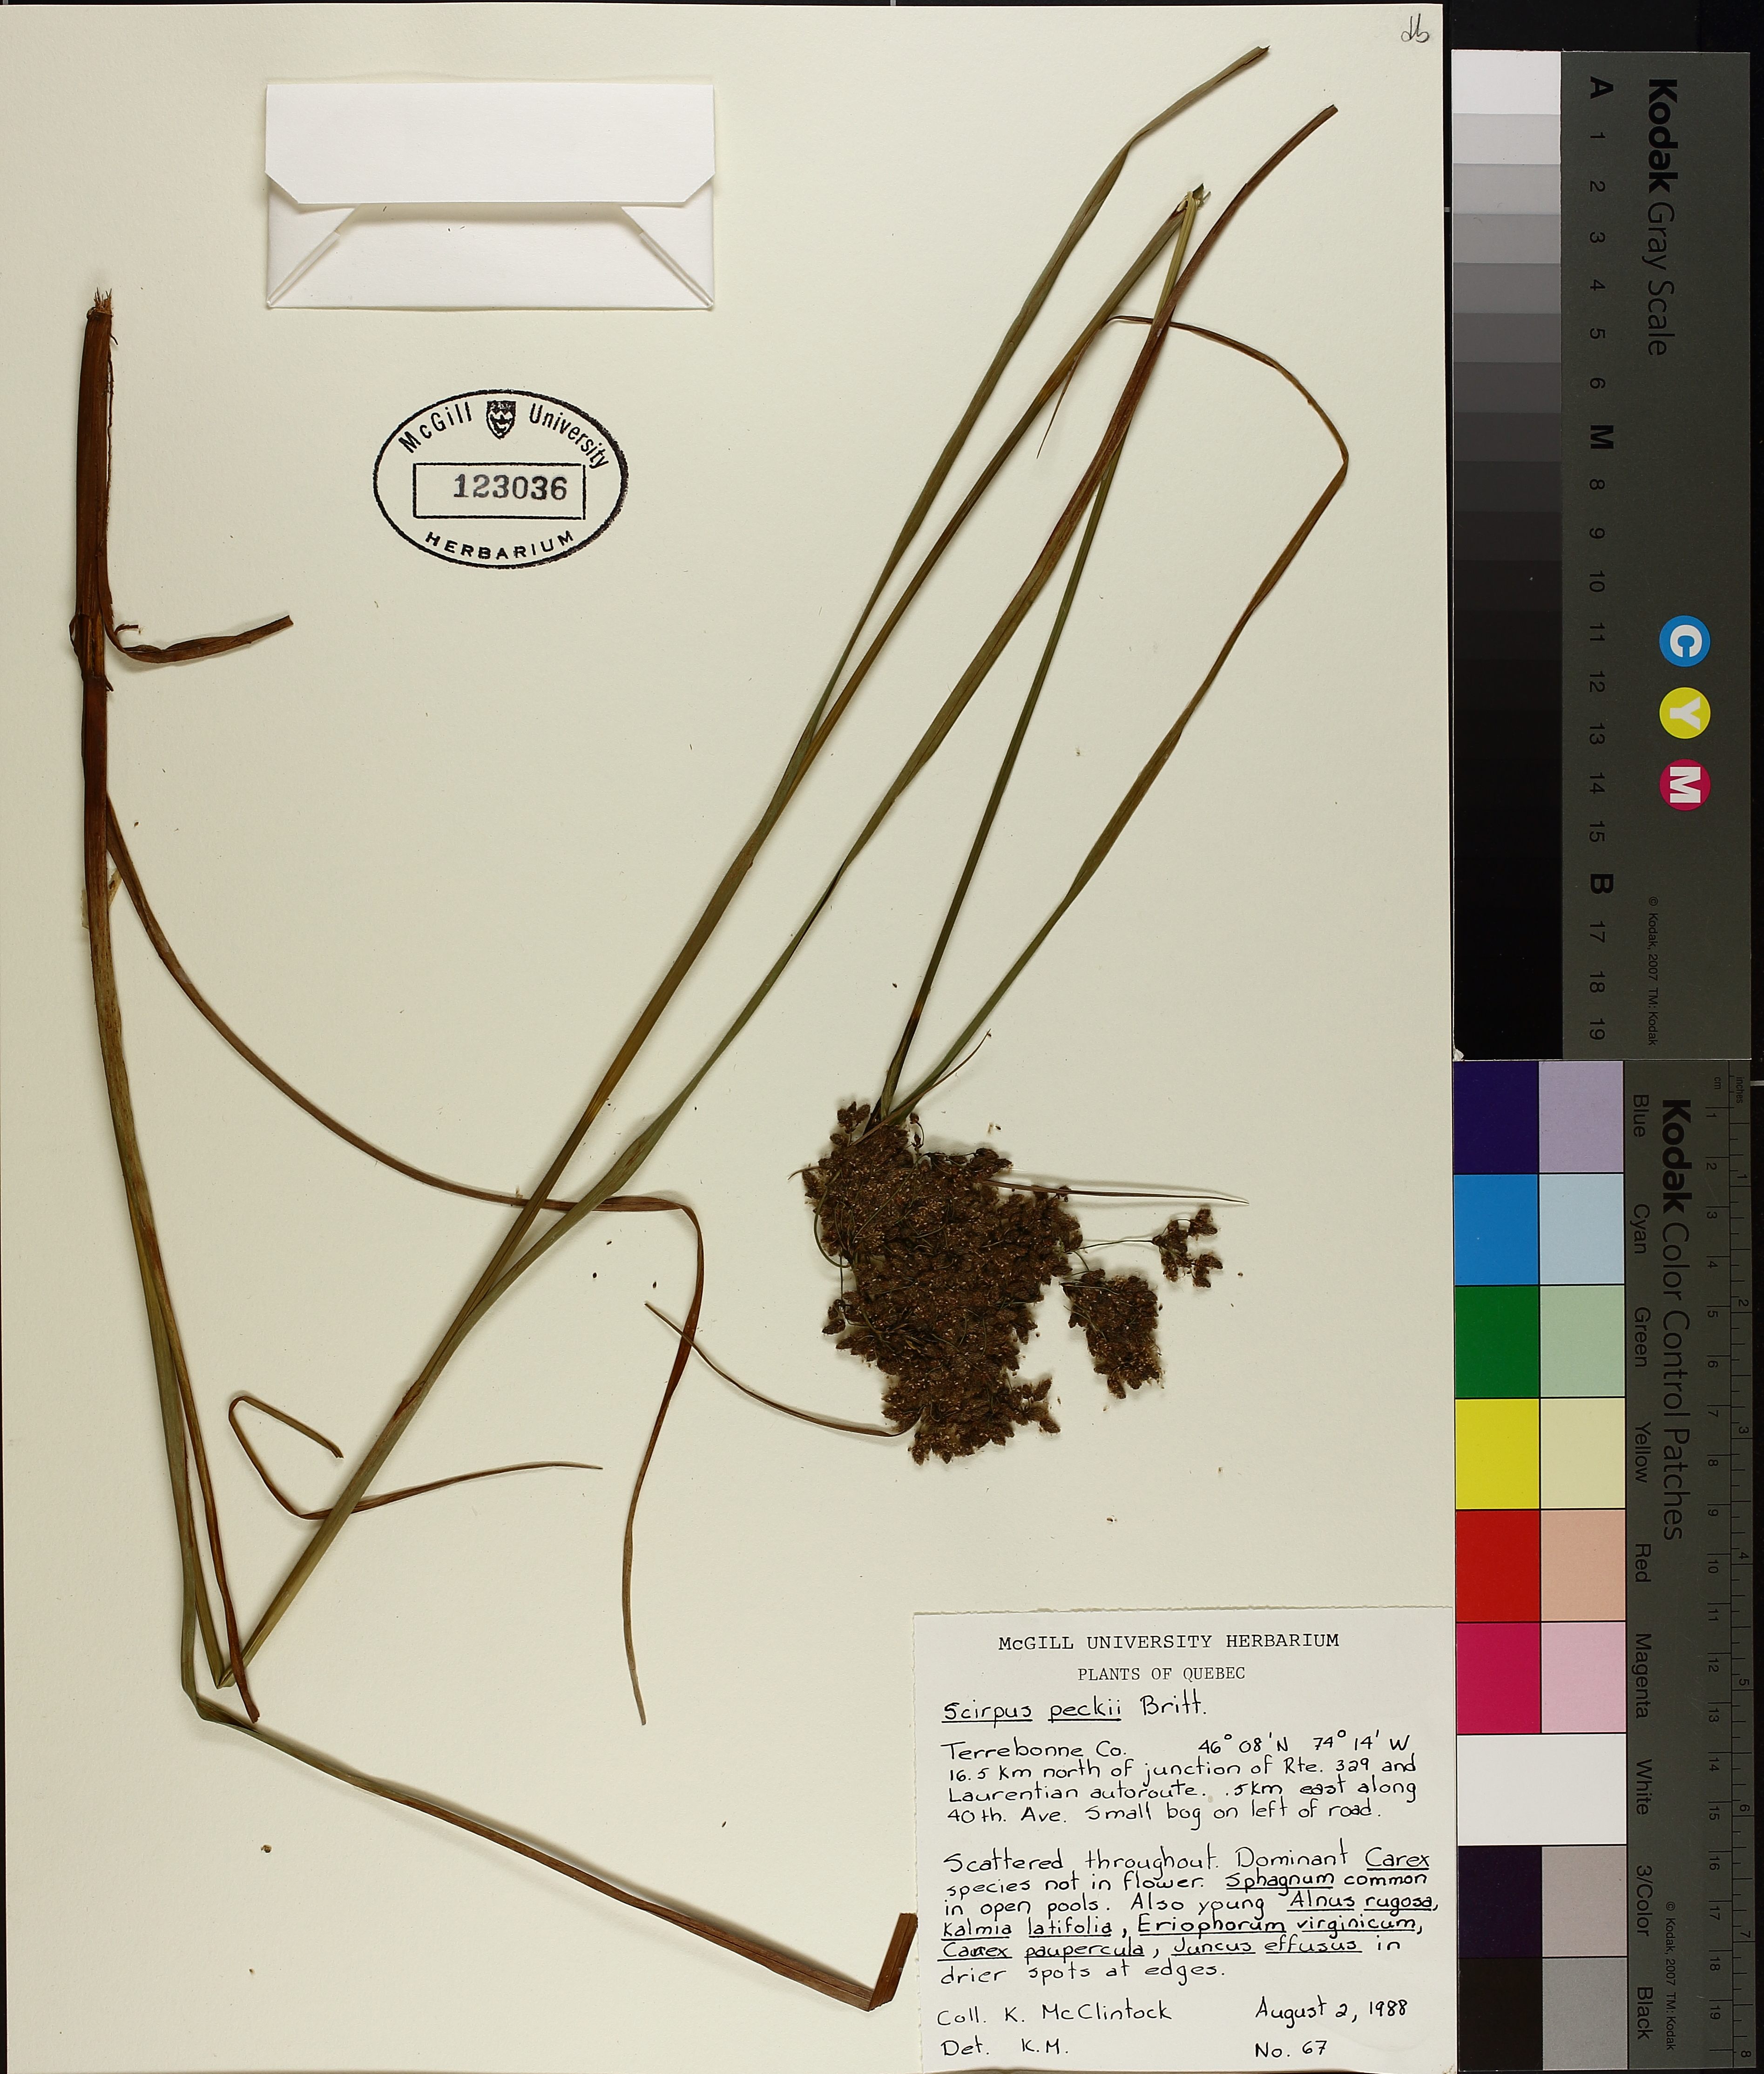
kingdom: Plantae
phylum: Tracheophyta
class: Liliopsida
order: Poales
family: Cyperaceae
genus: Scirpus
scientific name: Scirpus peckii
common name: Peck's bulrush
